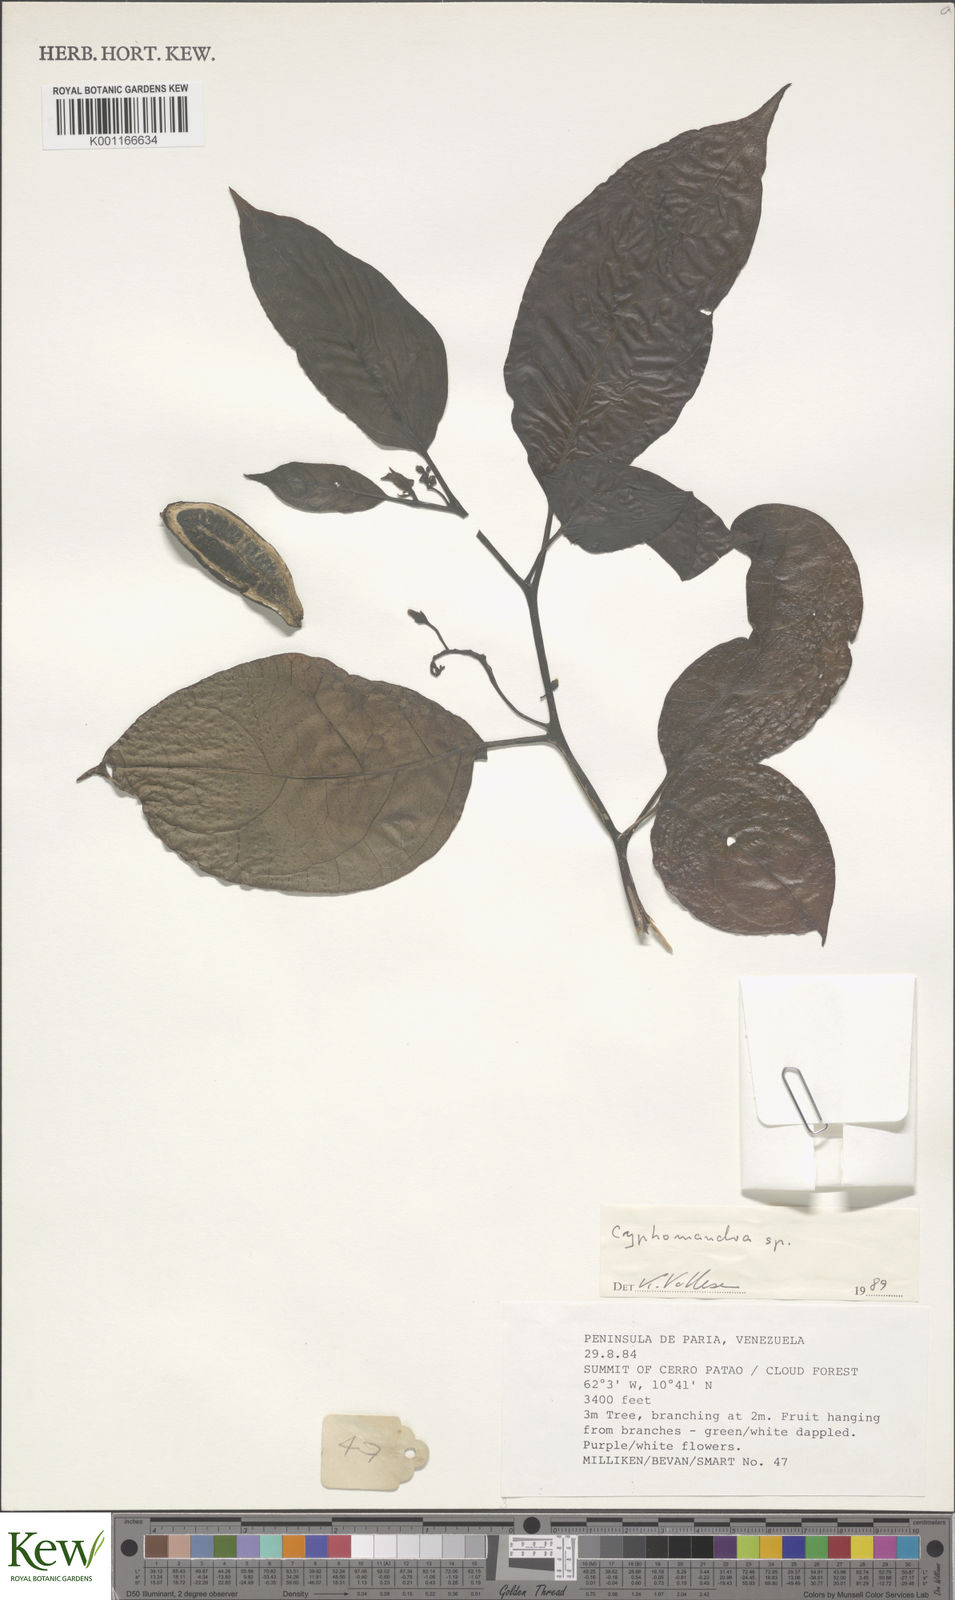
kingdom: Plantae
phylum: Tracheophyta
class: Magnoliopsida
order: Solanales
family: Solanaceae
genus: Solanum
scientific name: Solanum
